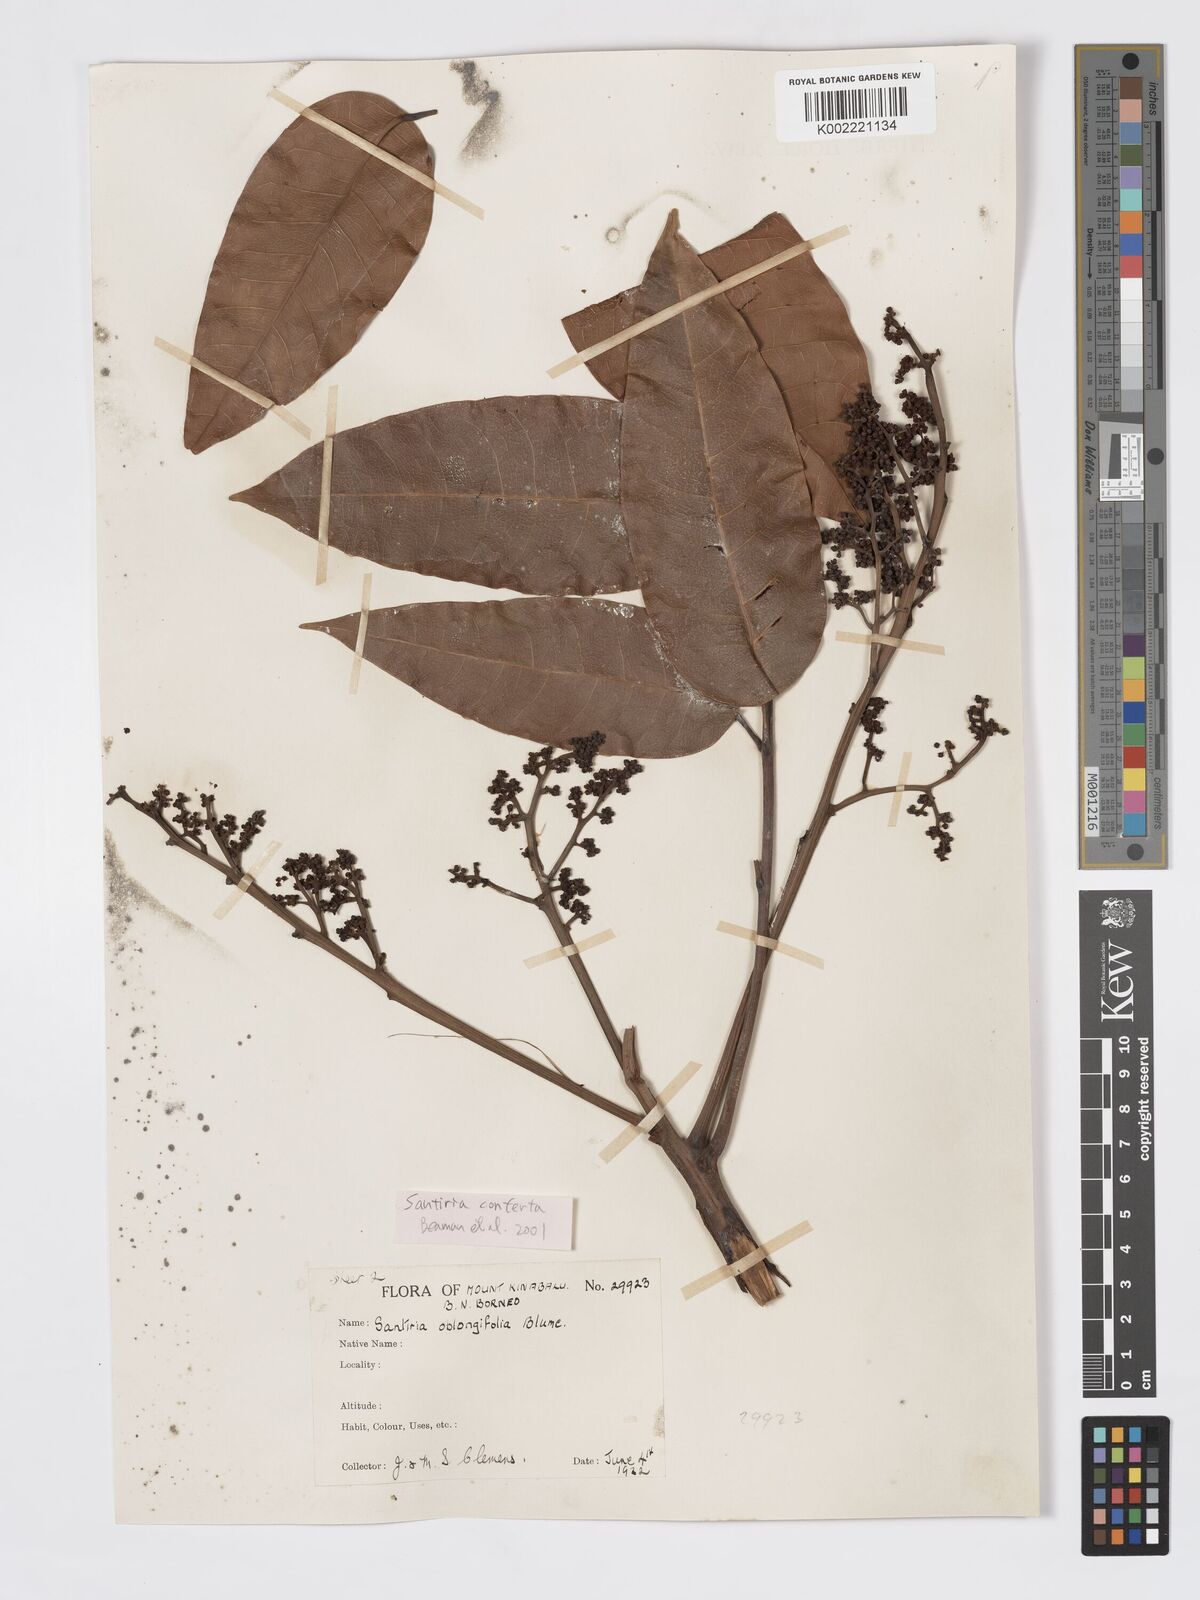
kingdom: Plantae
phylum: Tracheophyta
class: Magnoliopsida
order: Sapindales
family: Burseraceae
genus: Santiria
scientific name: Santiria conferta
